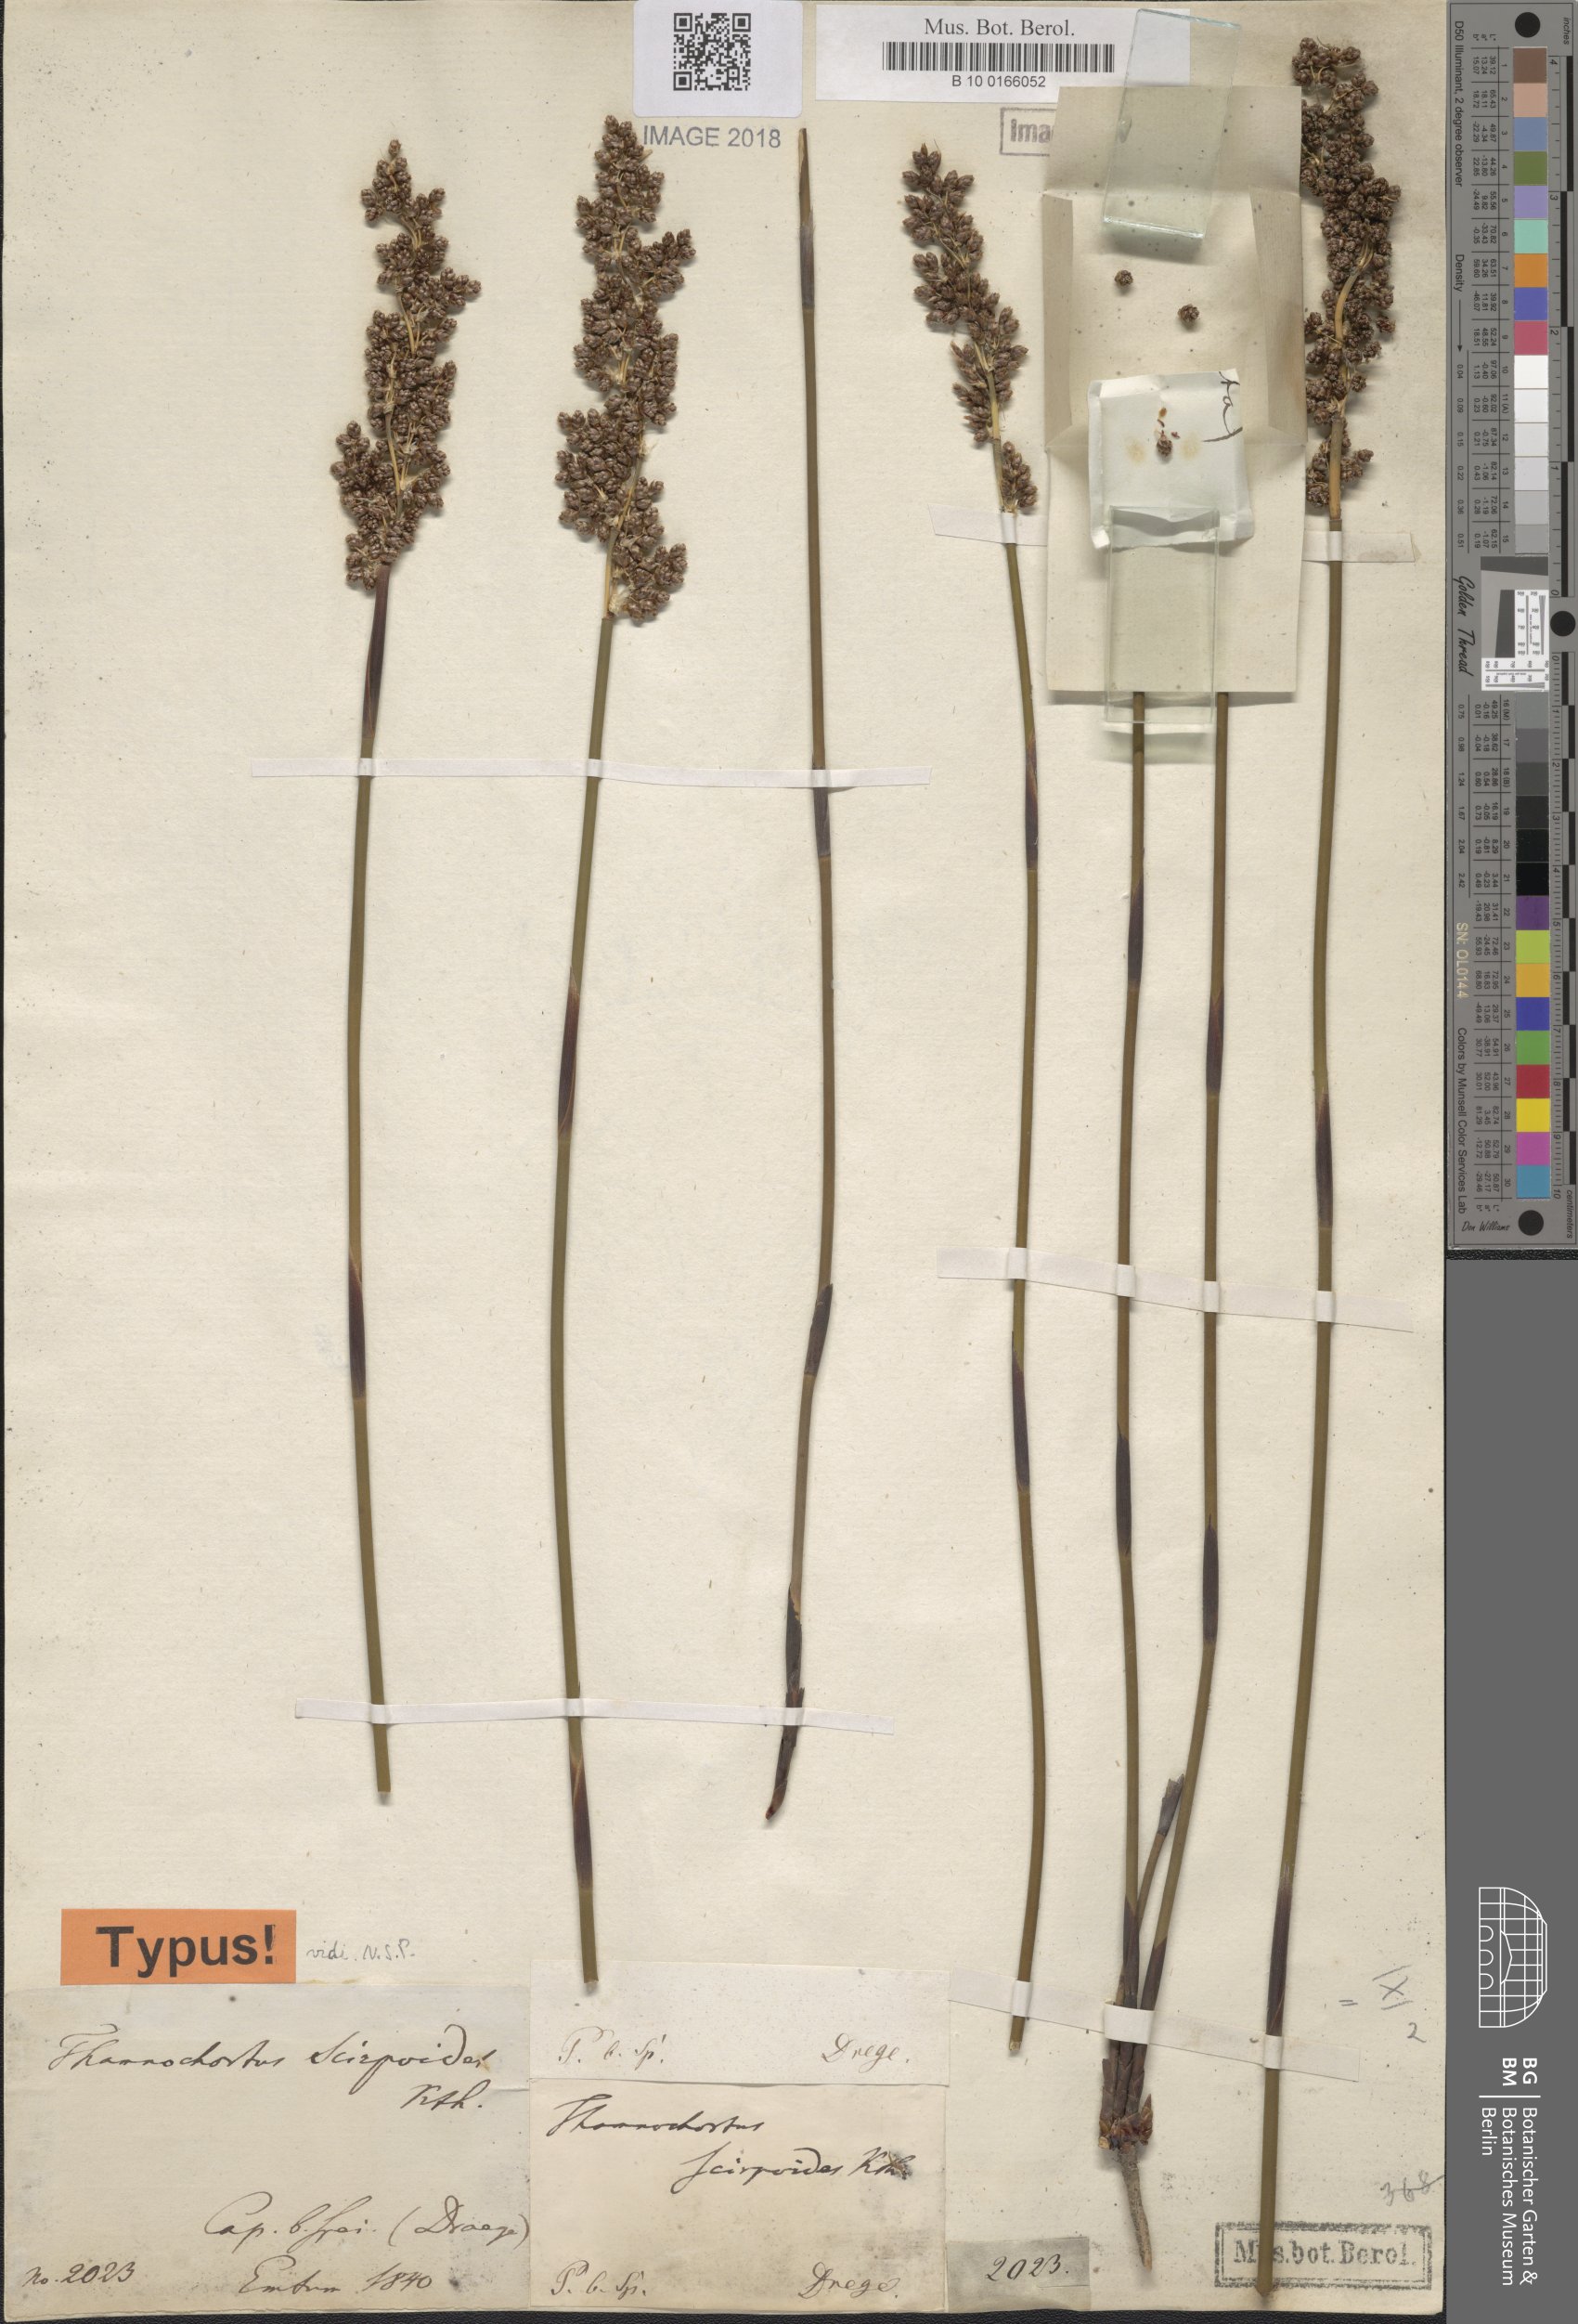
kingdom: Plantae
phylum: Tracheophyta
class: Liliopsida
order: Poales
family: Restionaceae
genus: Cannomois
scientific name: Cannomois scirpoides
